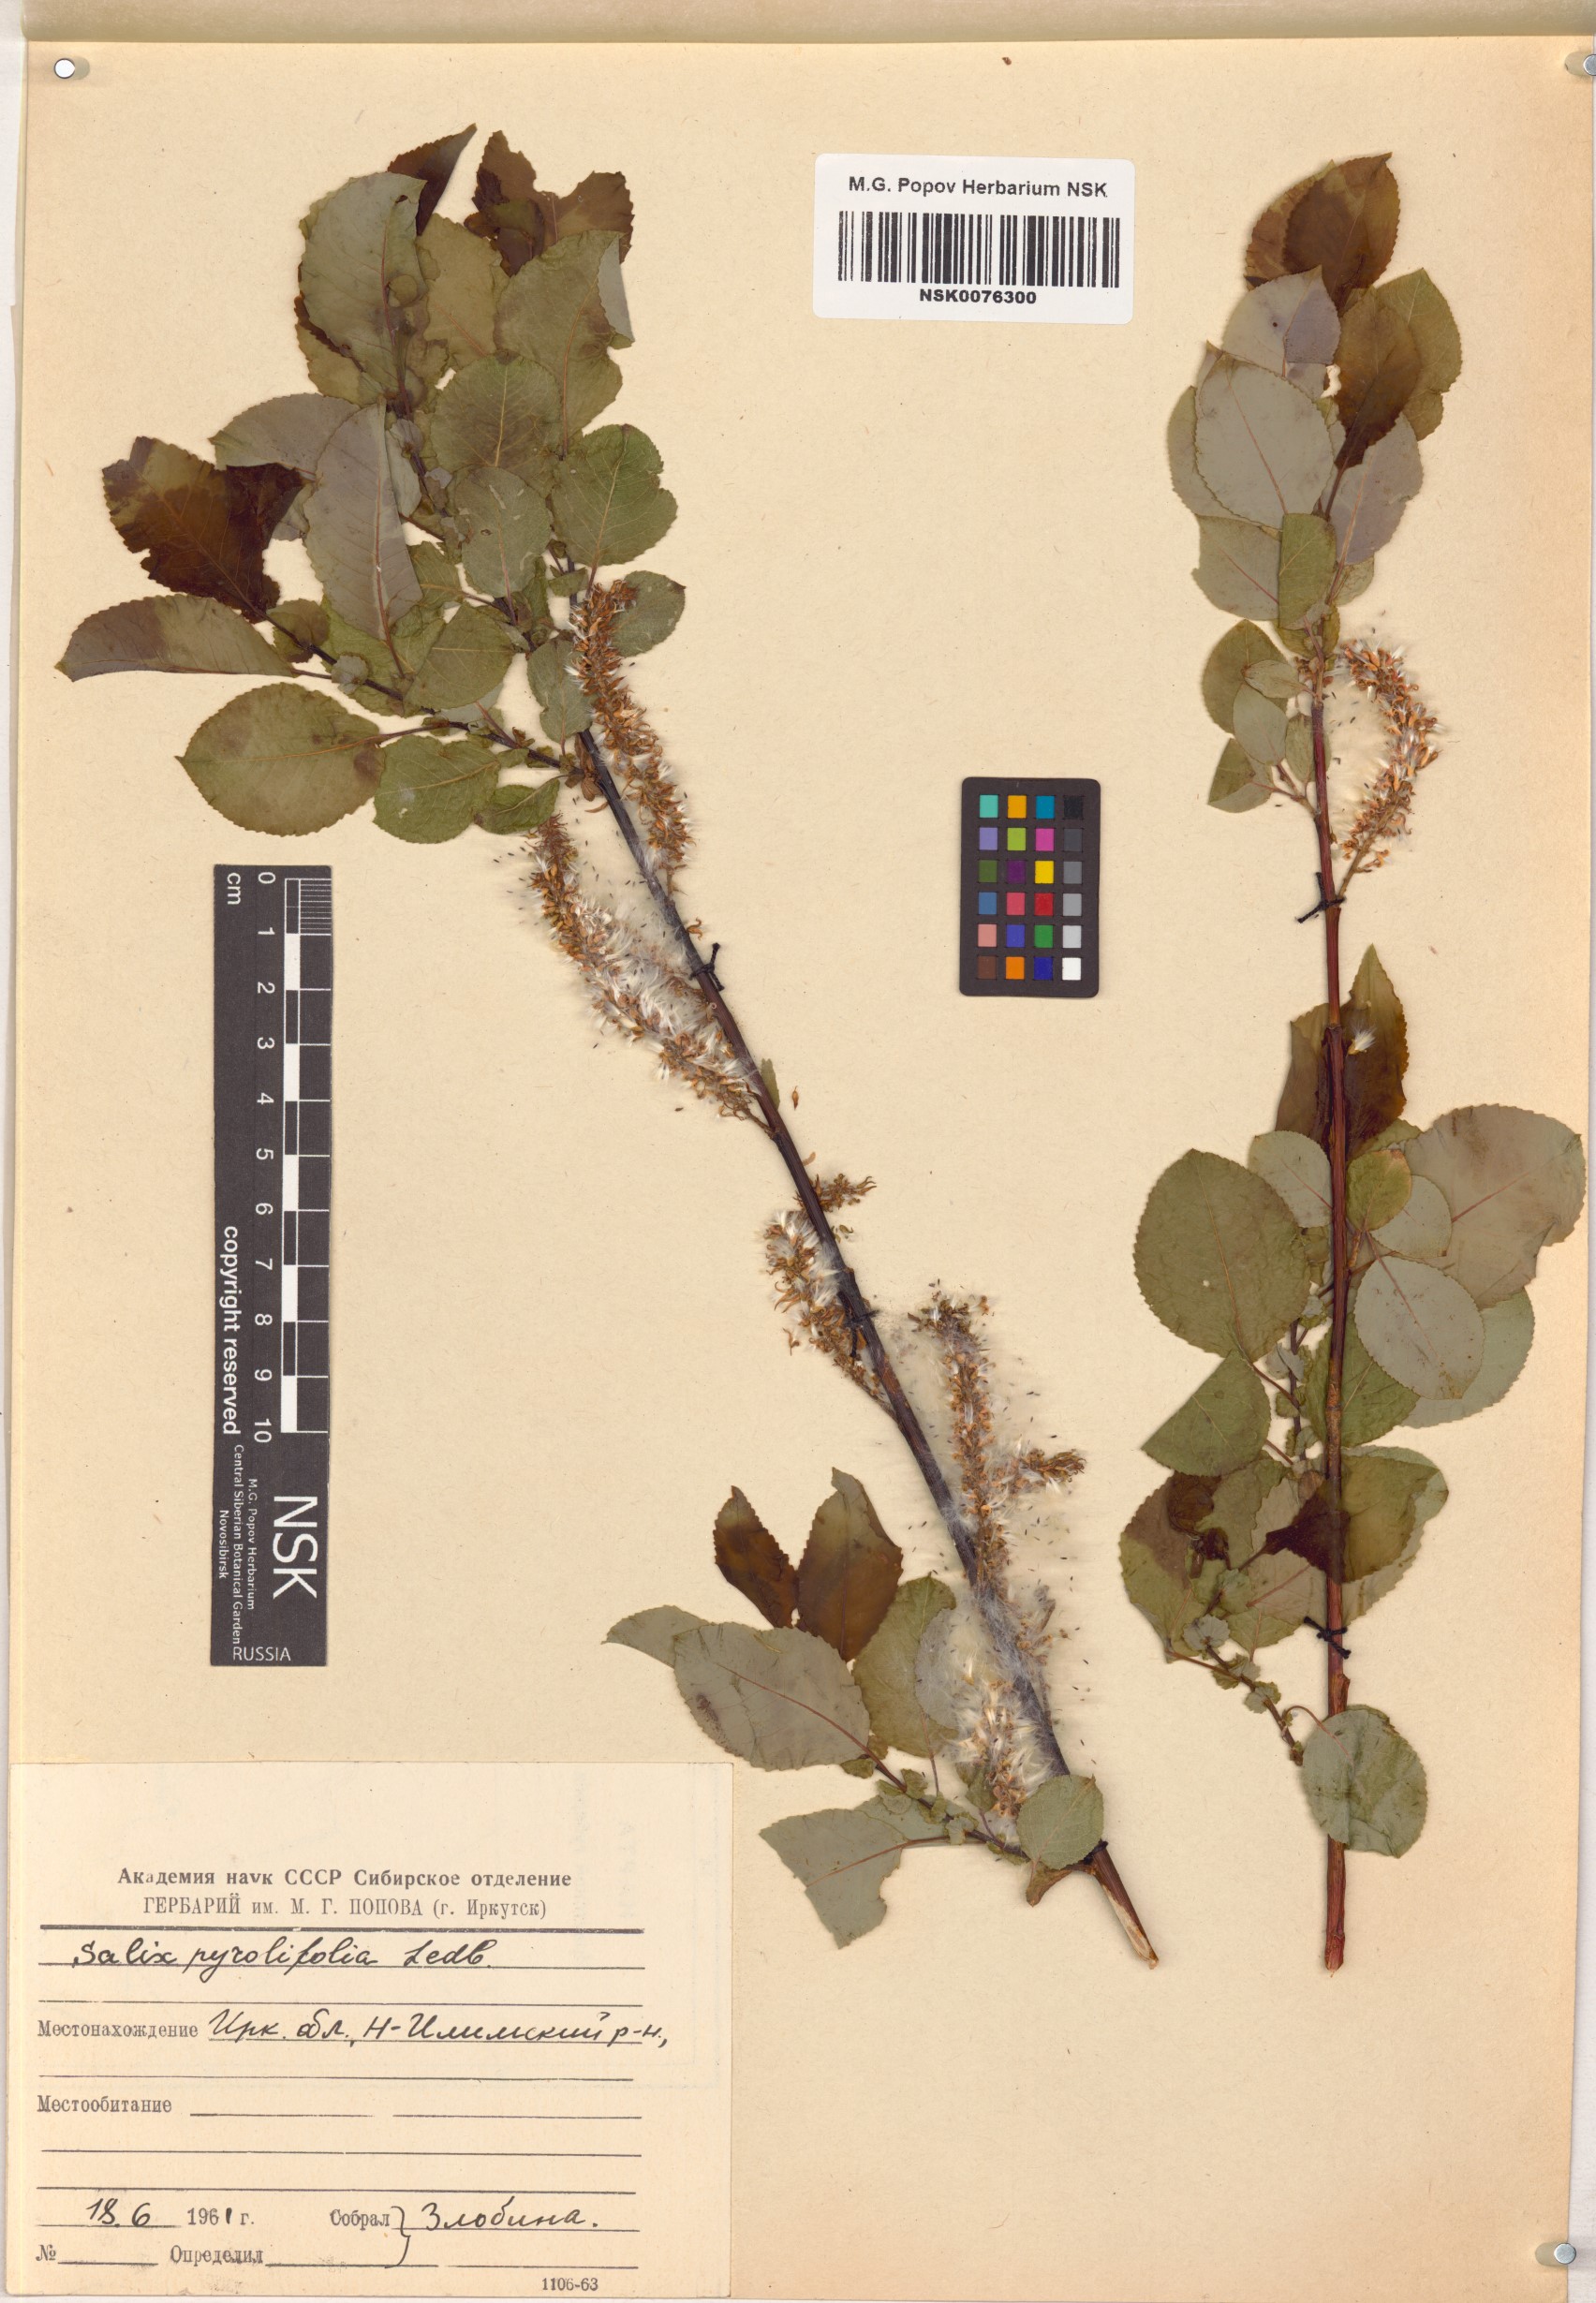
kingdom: Plantae
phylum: Tracheophyta
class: Magnoliopsida
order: Malpighiales
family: Salicaceae
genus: Salix
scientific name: Salix pyrolifolia
